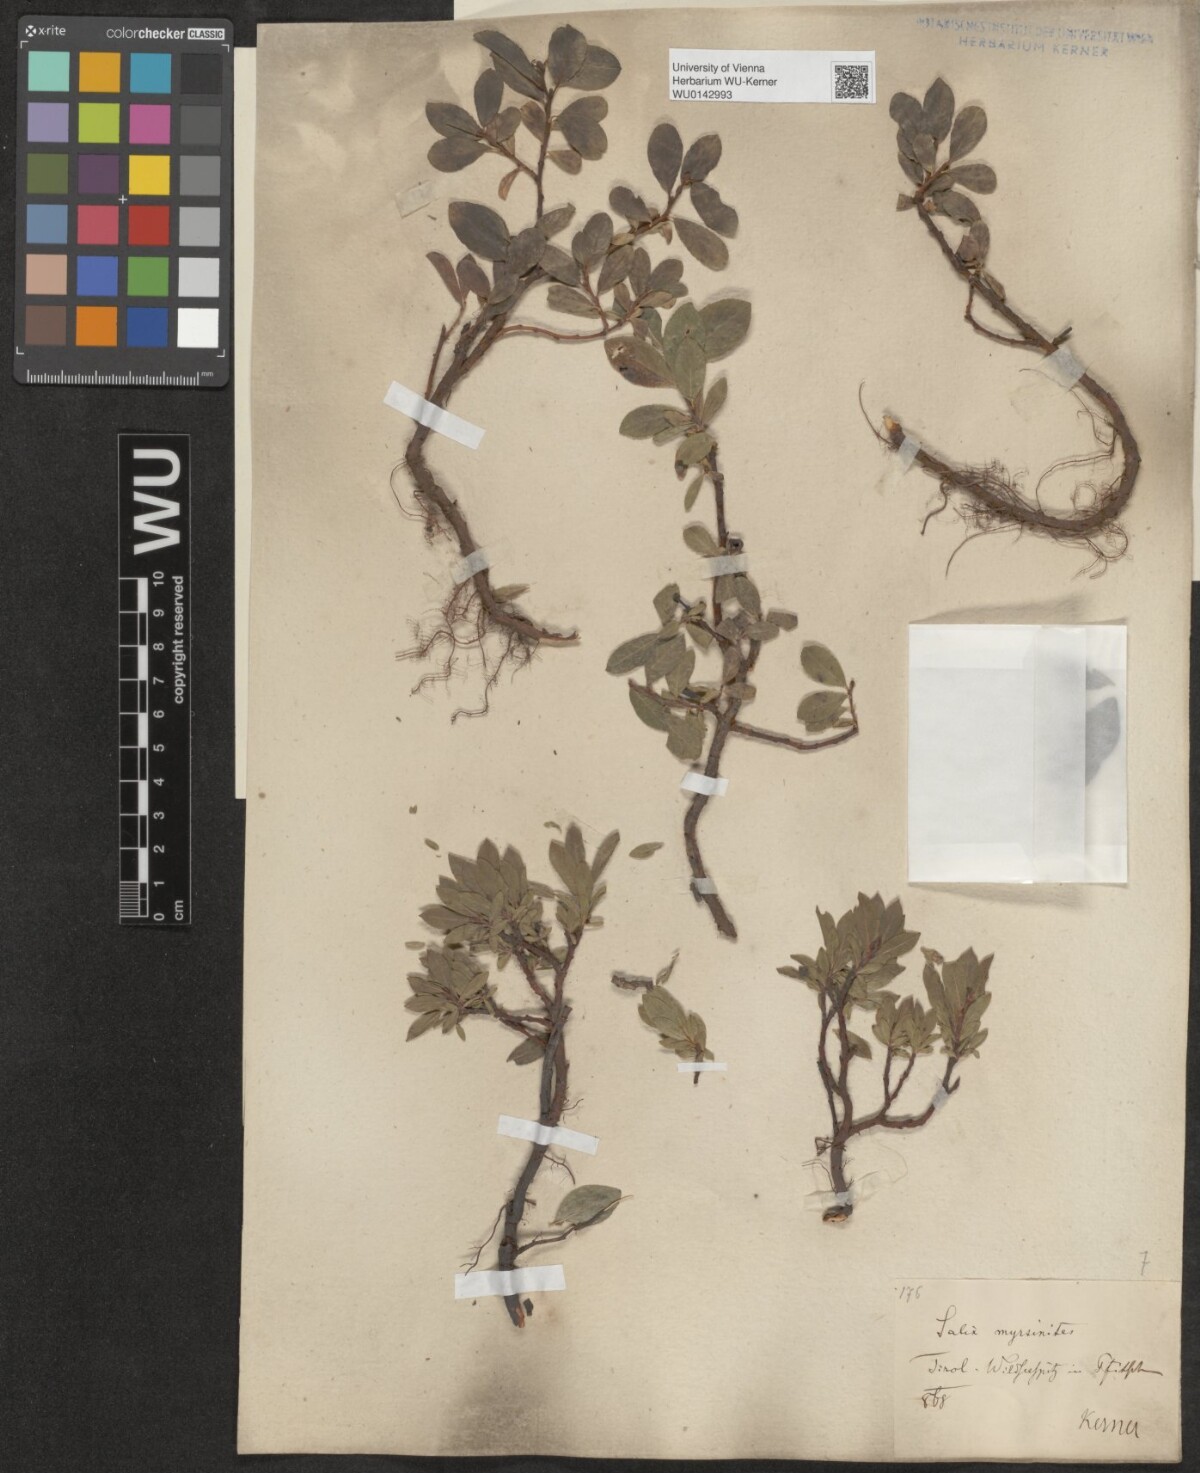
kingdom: Plantae
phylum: Tracheophyta
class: Magnoliopsida
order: Malpighiales
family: Salicaceae
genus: Salix
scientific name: Salix myrsinites
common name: Myrtle willow
